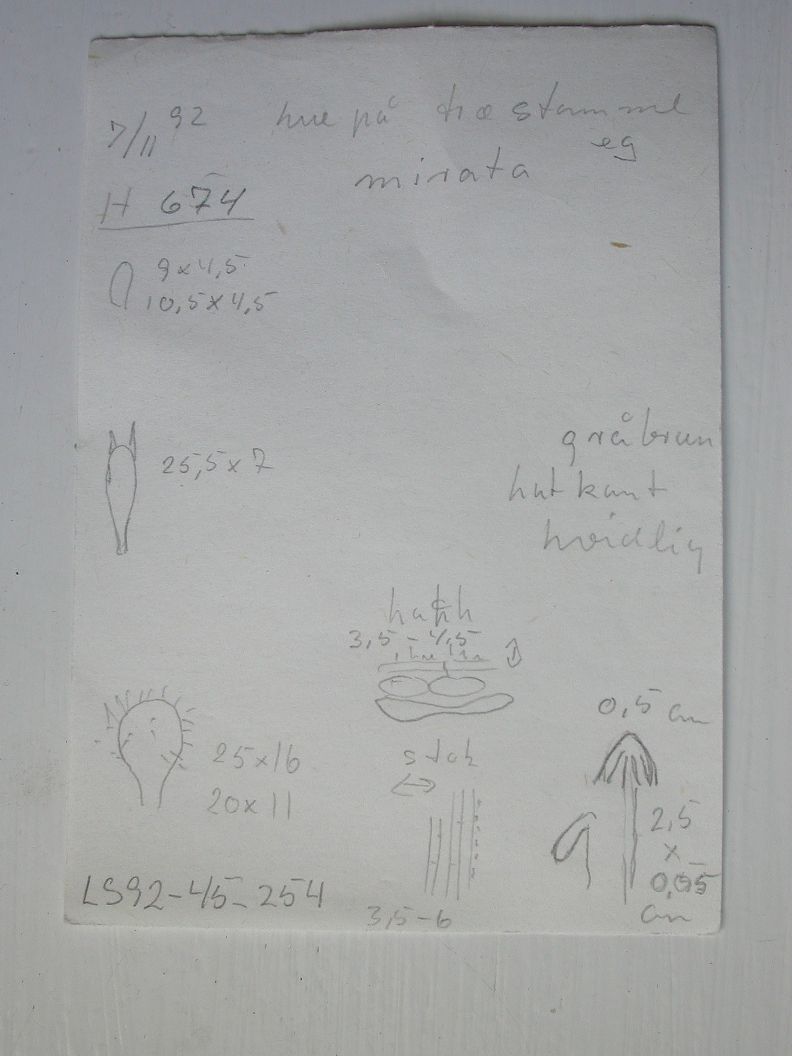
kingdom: Fungi
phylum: Basidiomycota
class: Agaricomycetes
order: Agaricales
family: Mycenaceae
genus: Mycena
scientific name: Mycena mirata
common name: krat-huesvamp
